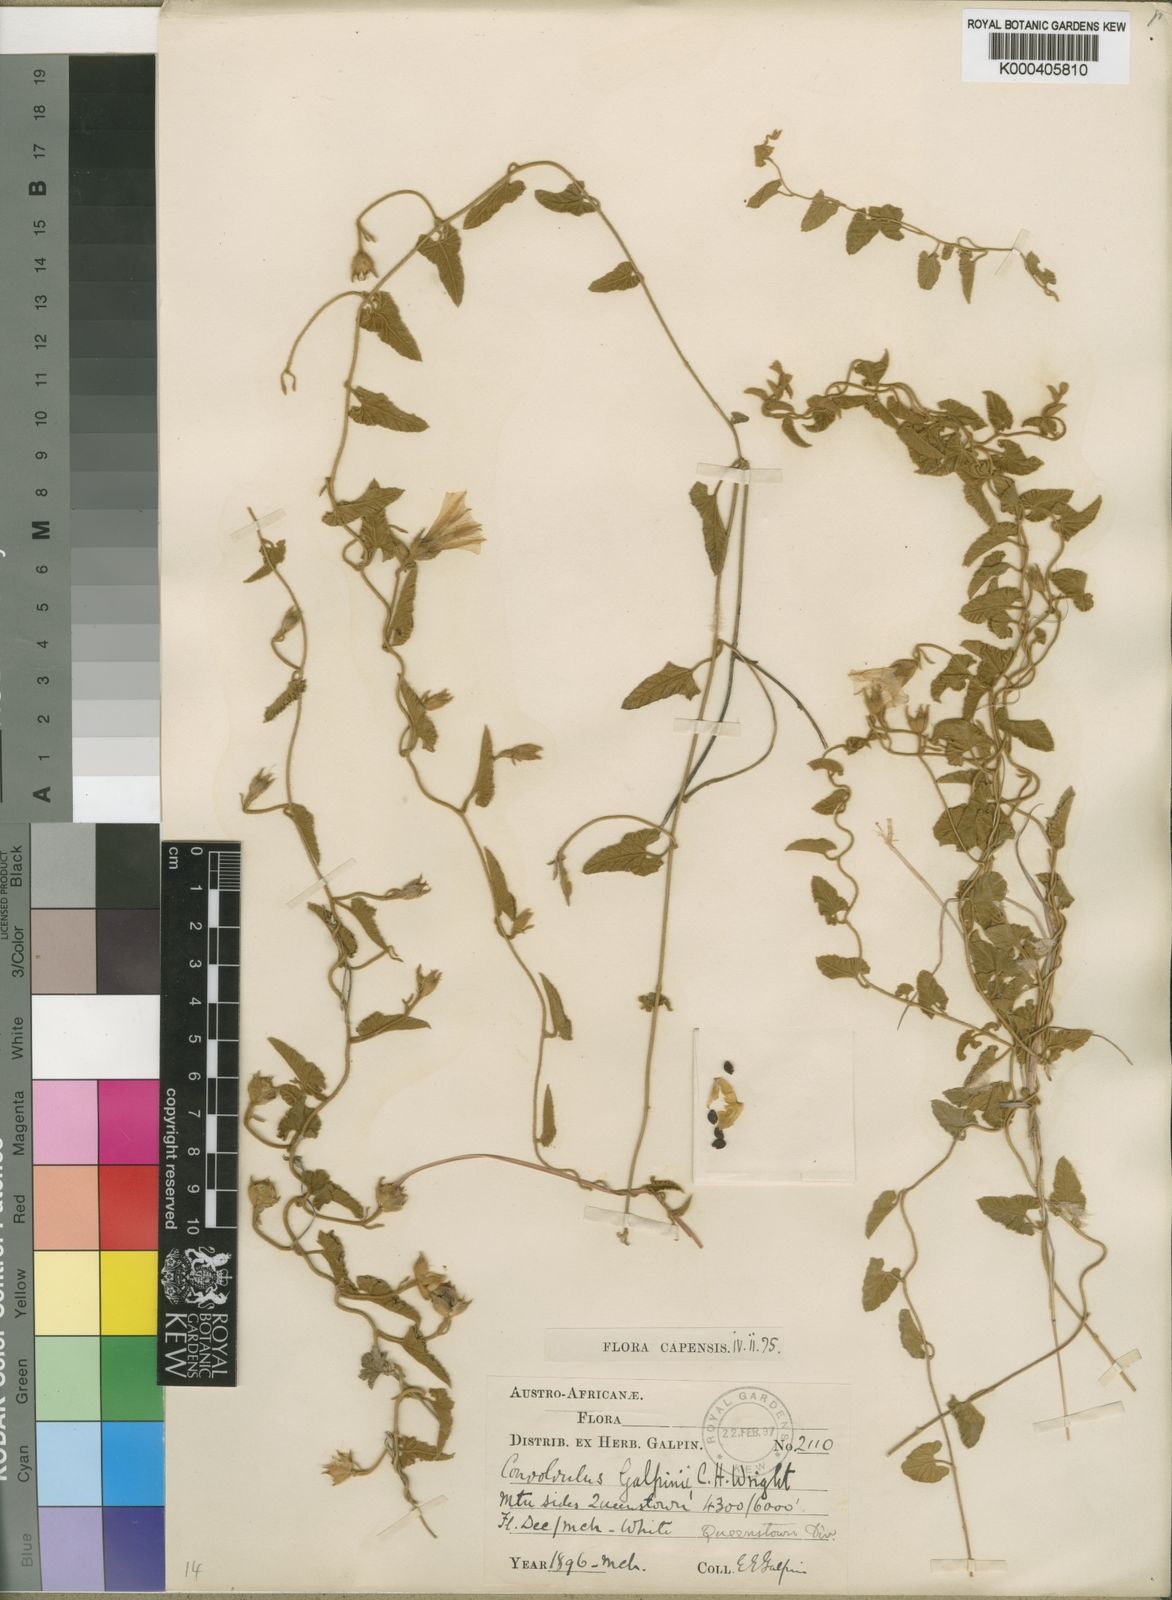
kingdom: Plantae
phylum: Tracheophyta
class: Magnoliopsida
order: Solanales
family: Convolvulaceae
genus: Convolvulus
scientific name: Convolvulus galpinii
